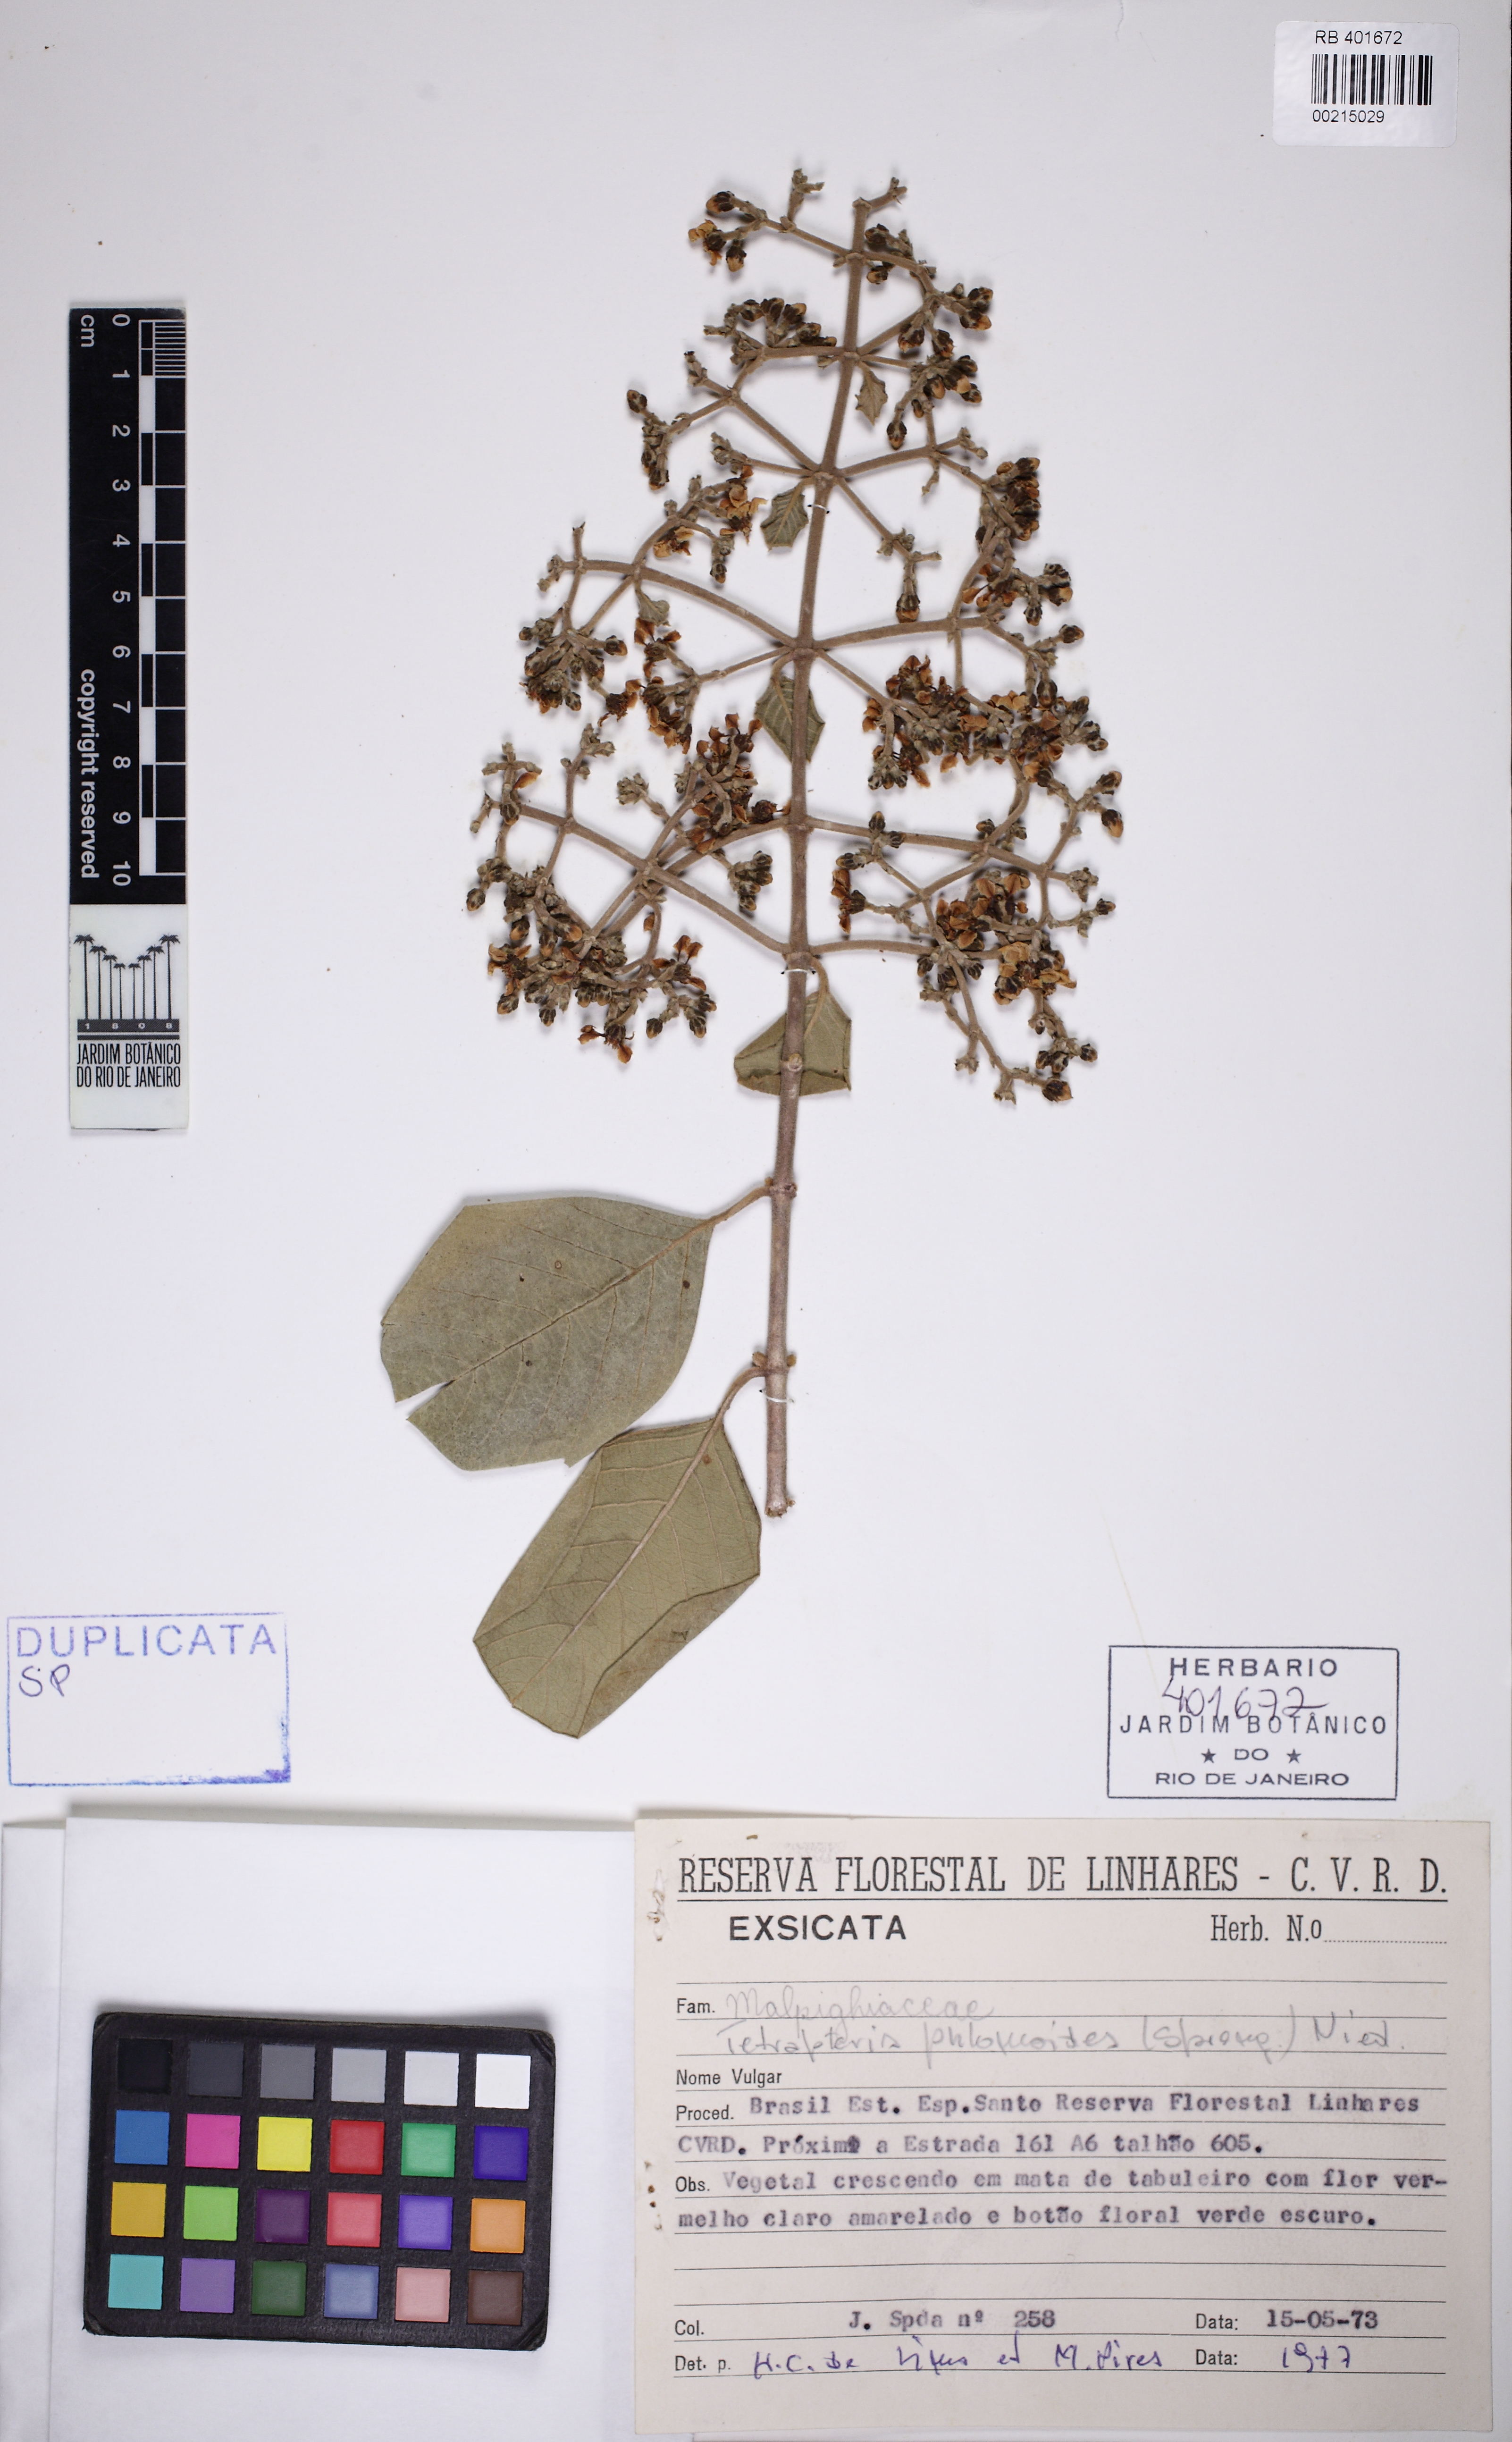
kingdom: Plantae
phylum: Tracheophyta
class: Magnoliopsida
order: Malpighiales
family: Malpighiaceae
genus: Tetrapterys
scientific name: Tetrapterys phlomoides
